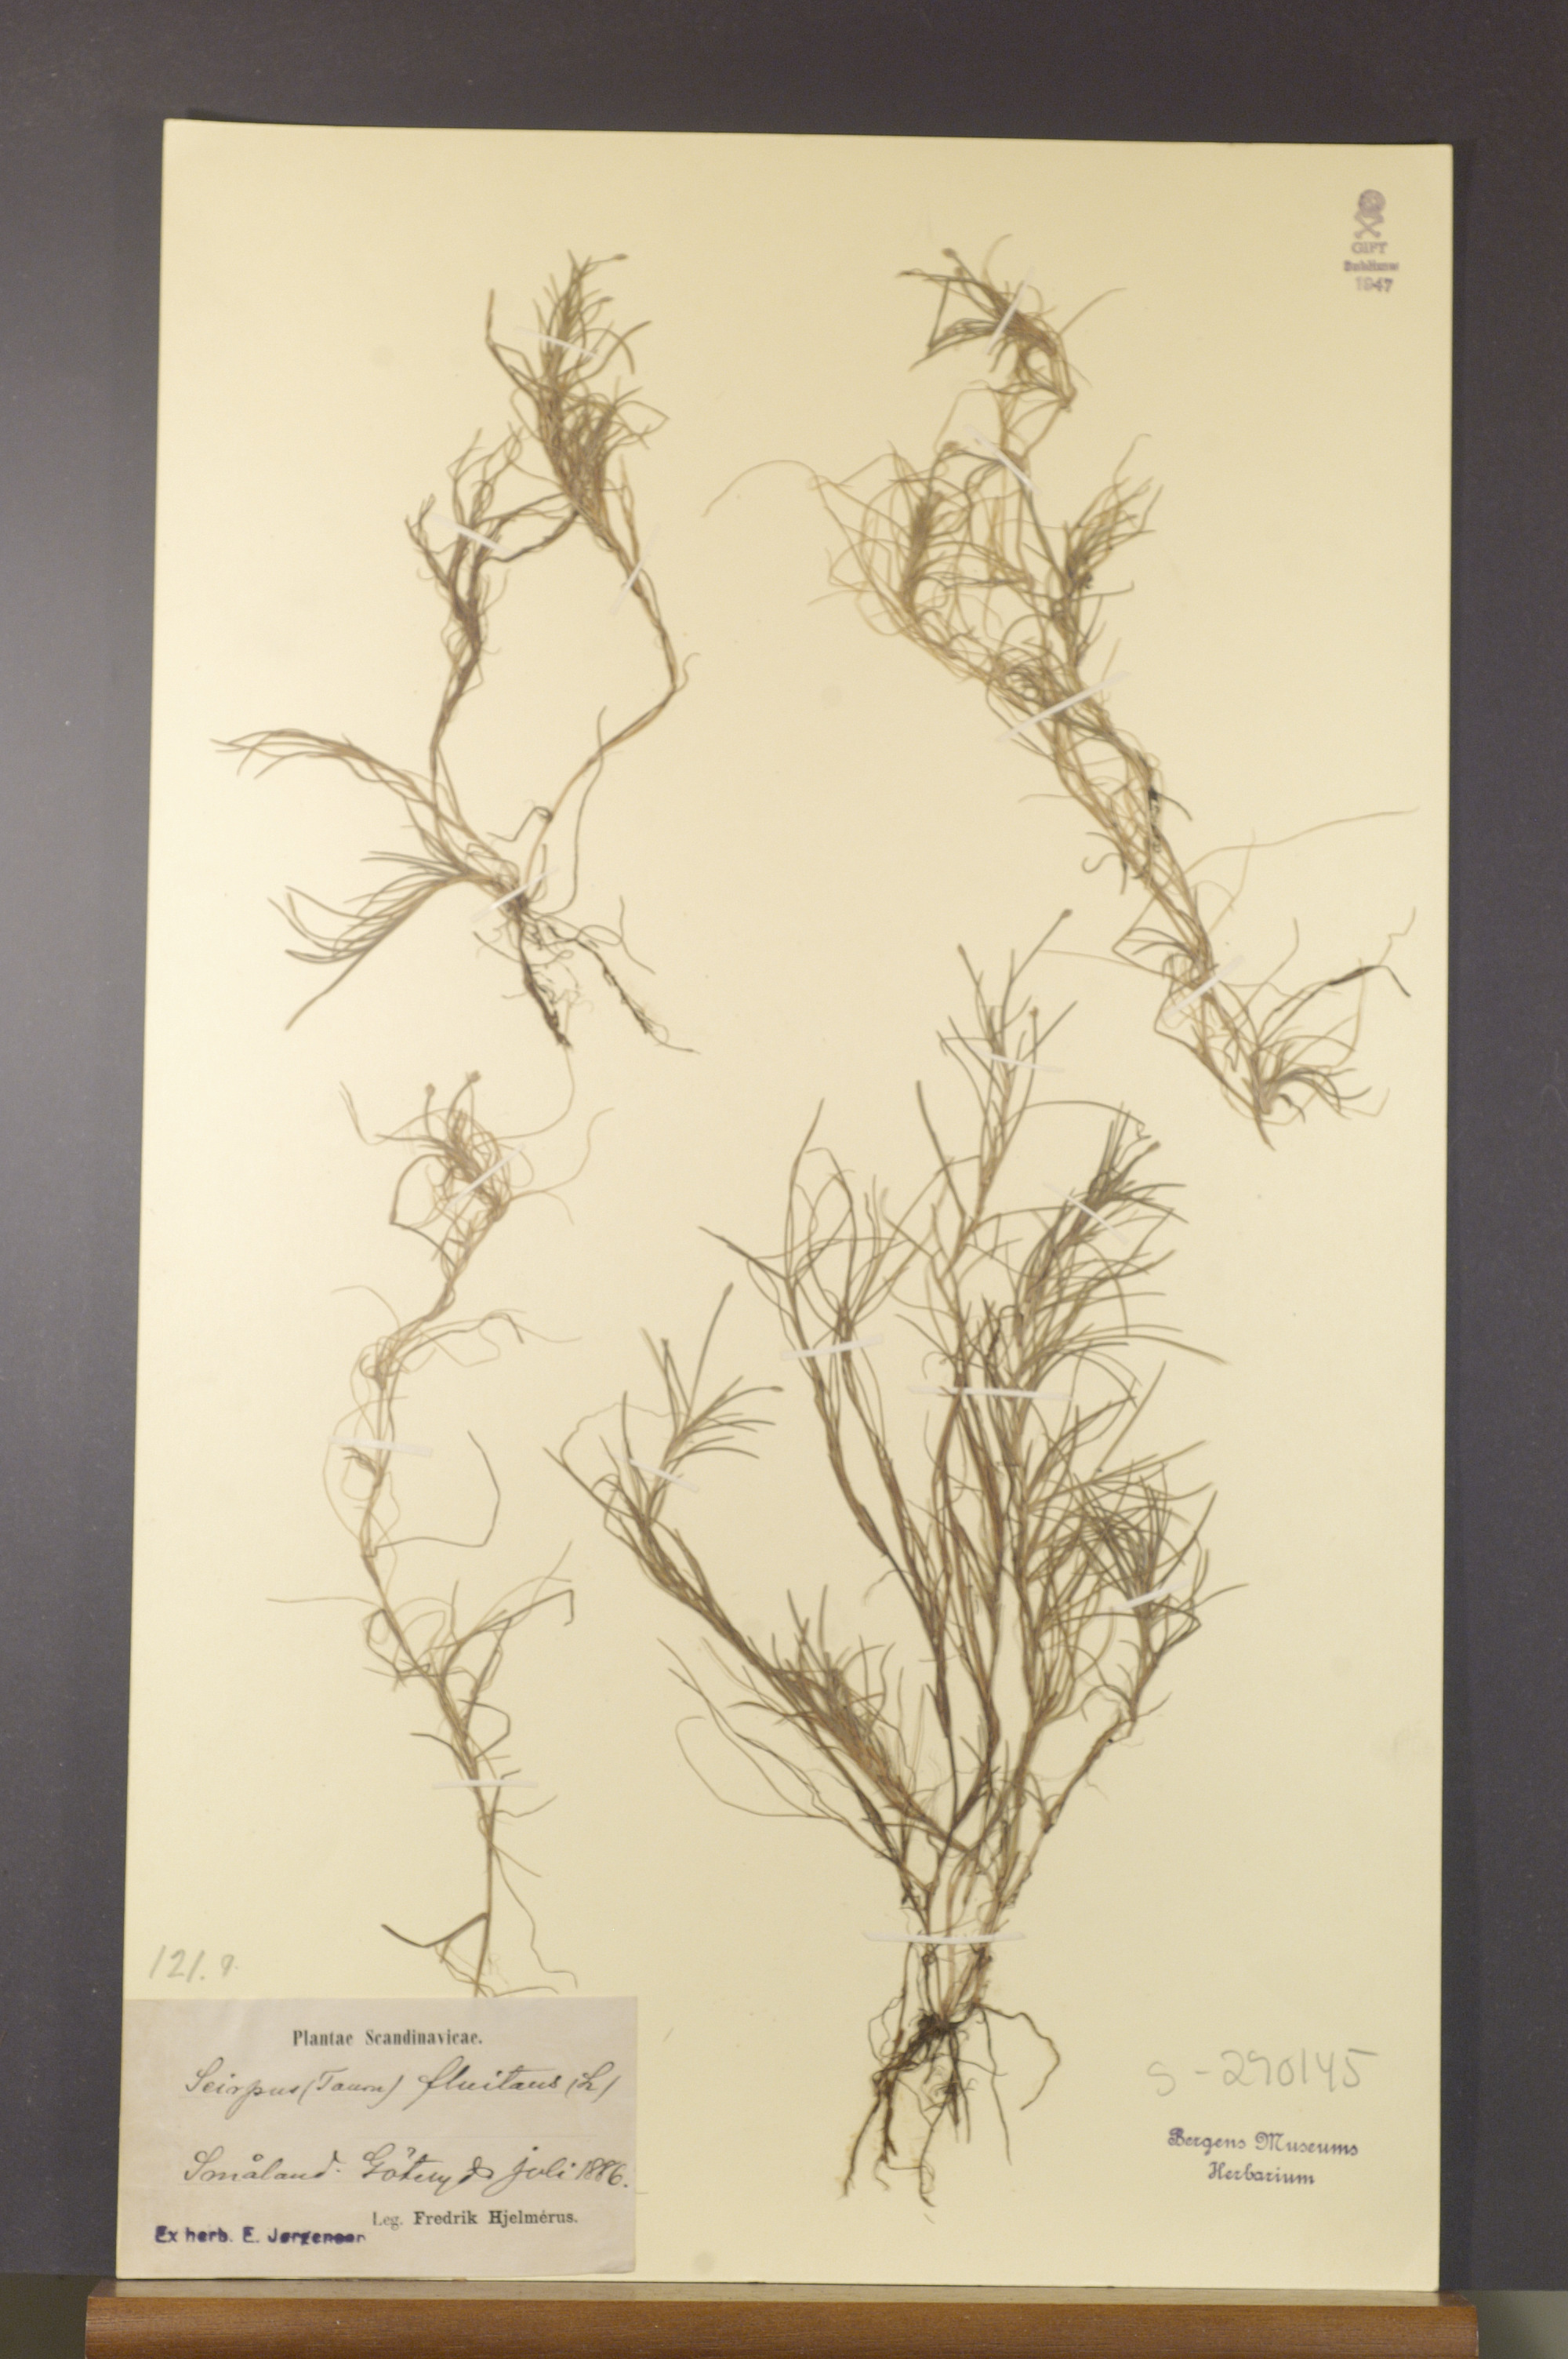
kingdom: Plantae
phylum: Tracheophyta
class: Liliopsida
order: Poales
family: Cyperaceae
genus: Isolepis
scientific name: Isolepis fluitans
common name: Floating club-rush
